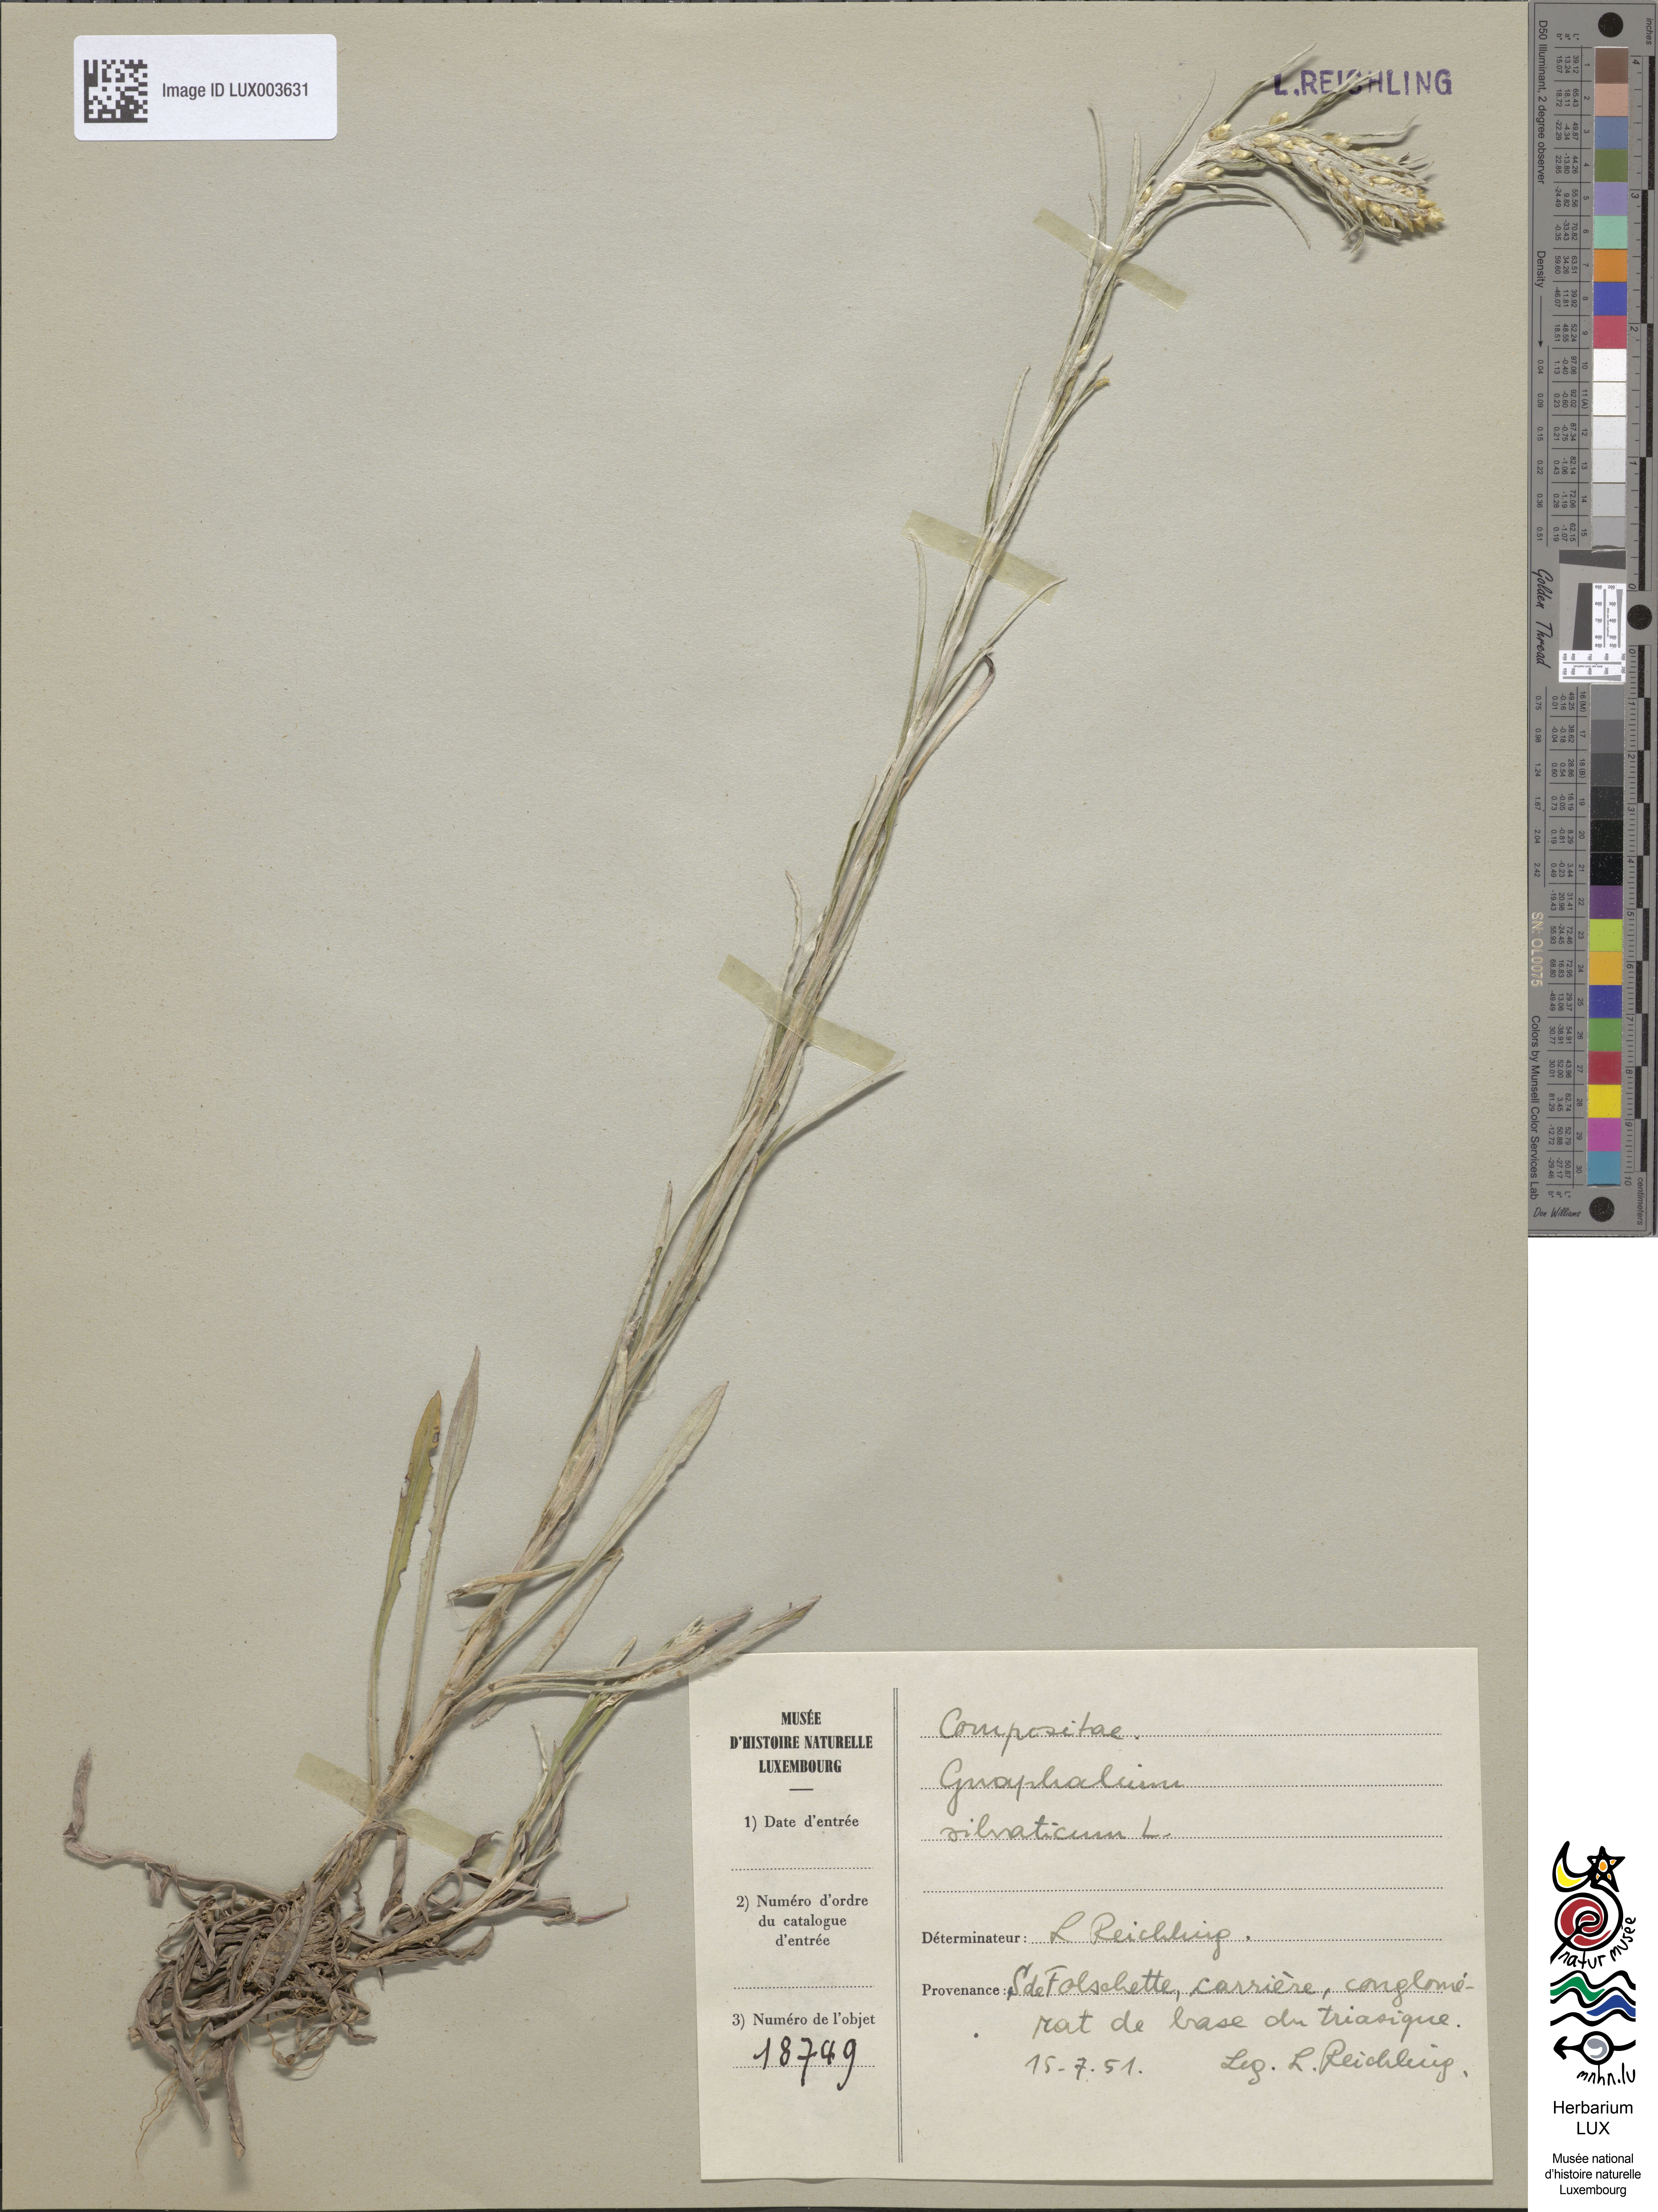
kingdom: Plantae
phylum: Tracheophyta
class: Magnoliopsida
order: Asterales
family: Asteraceae
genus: Omalotheca
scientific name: Omalotheca sylvatica
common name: Heath cudweed
